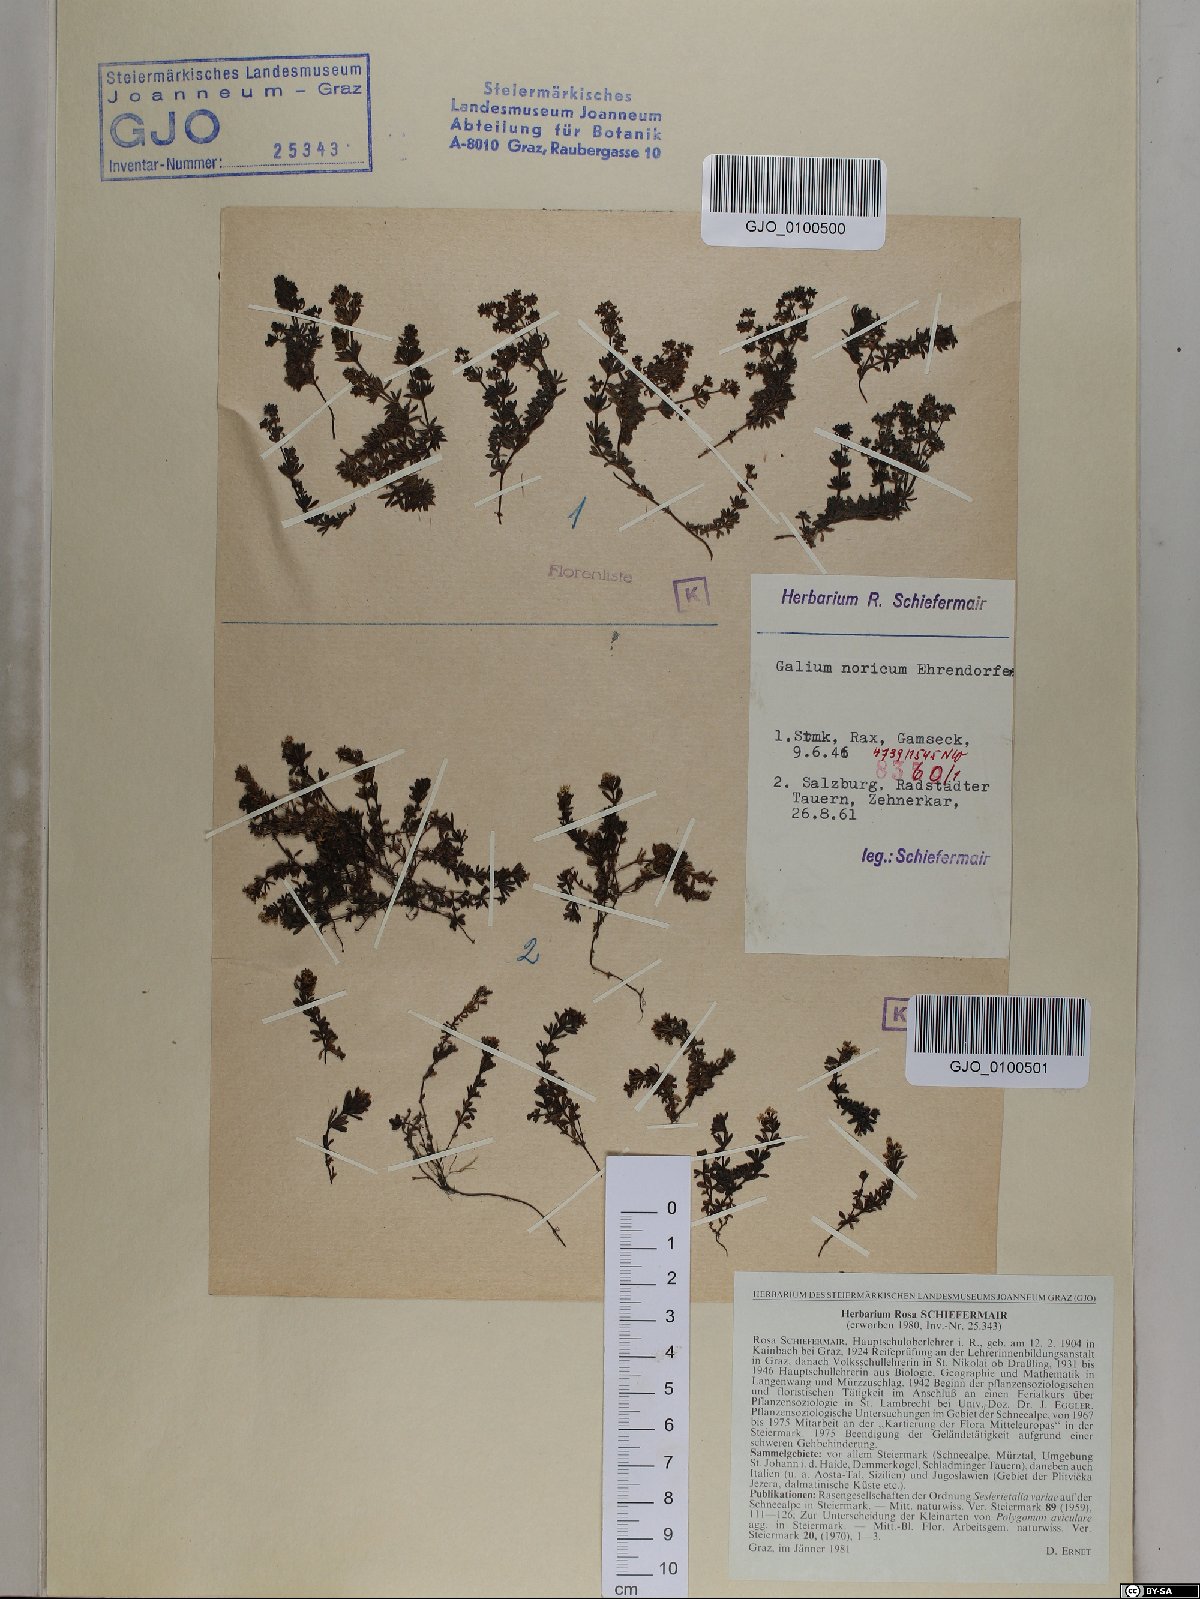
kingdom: Plantae
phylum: Tracheophyta
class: Magnoliopsida
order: Gentianales
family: Rubiaceae
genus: Galium
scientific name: Galium noricum
